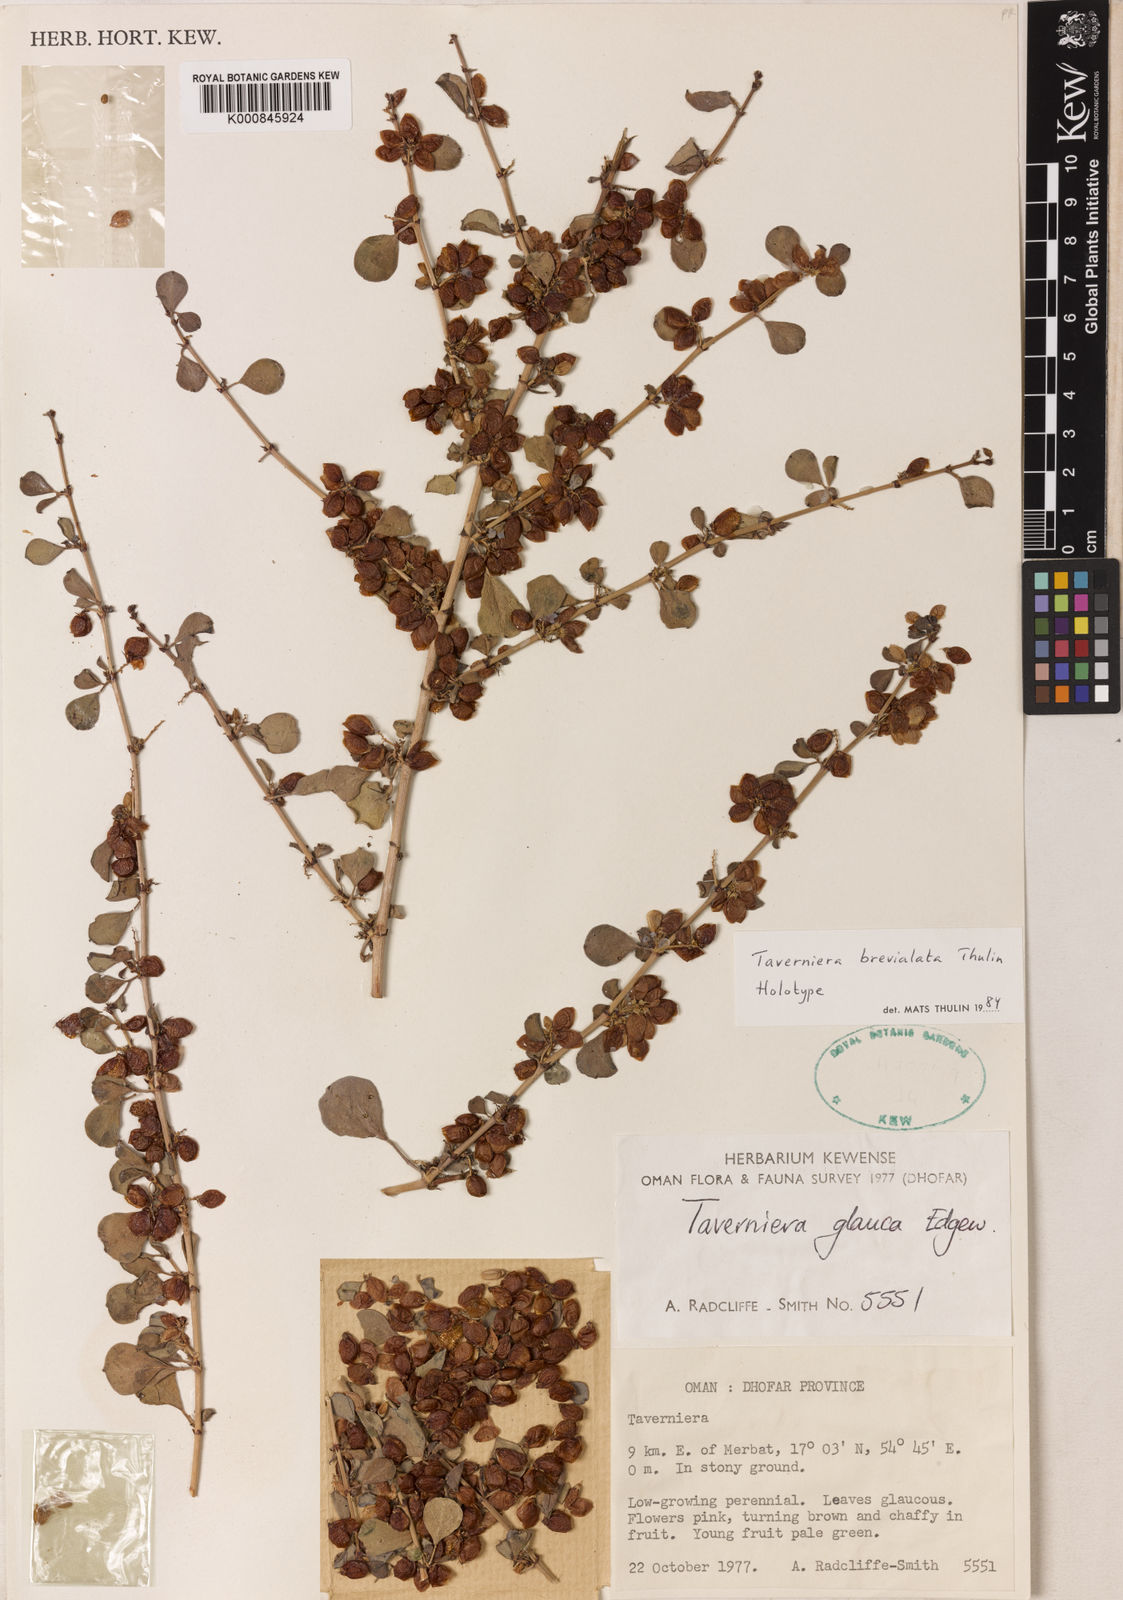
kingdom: Plantae
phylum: Tracheophyta
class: Magnoliopsida
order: Fabales
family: Fabaceae
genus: Taverniera
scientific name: Taverniera brevialata
